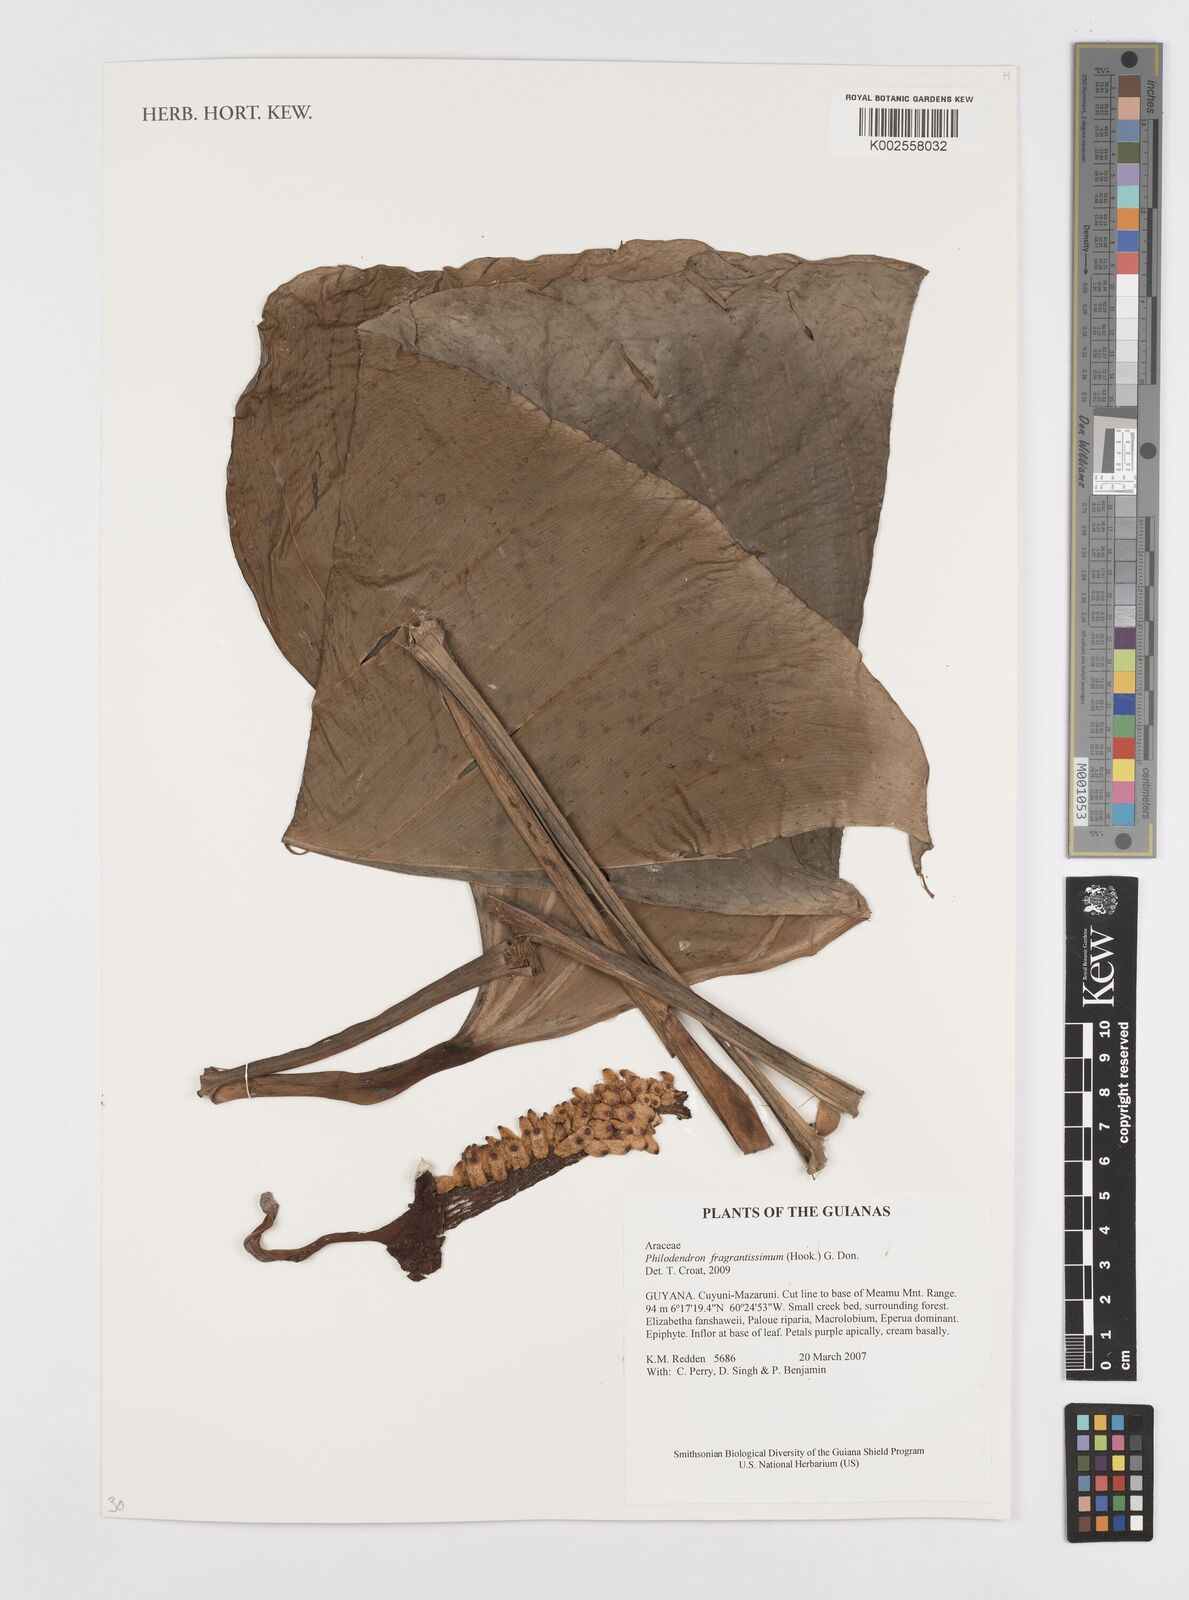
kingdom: Plantae
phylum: Tracheophyta
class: Liliopsida
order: Alismatales
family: Araceae
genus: Philodendron
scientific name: Philodendron fragrantissimum
